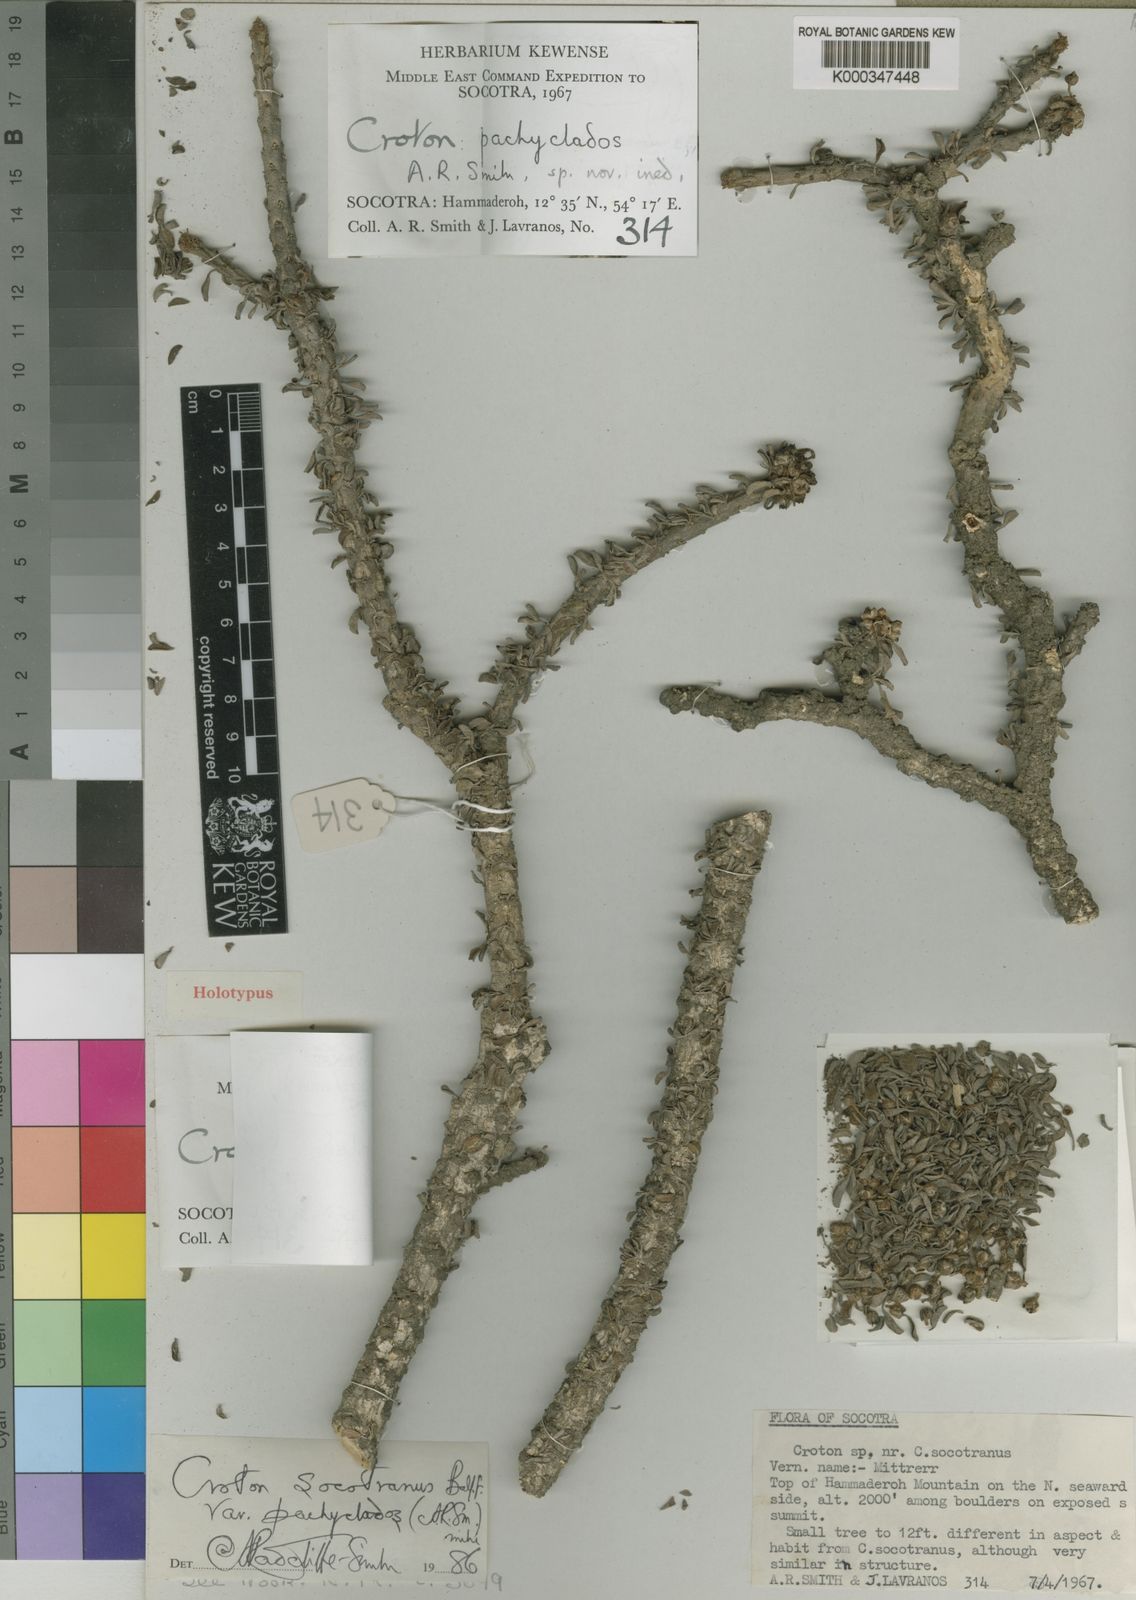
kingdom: Plantae
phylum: Tracheophyta
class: Magnoliopsida
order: Malpighiales
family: Euphorbiaceae
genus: Croton
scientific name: Croton socotranus
